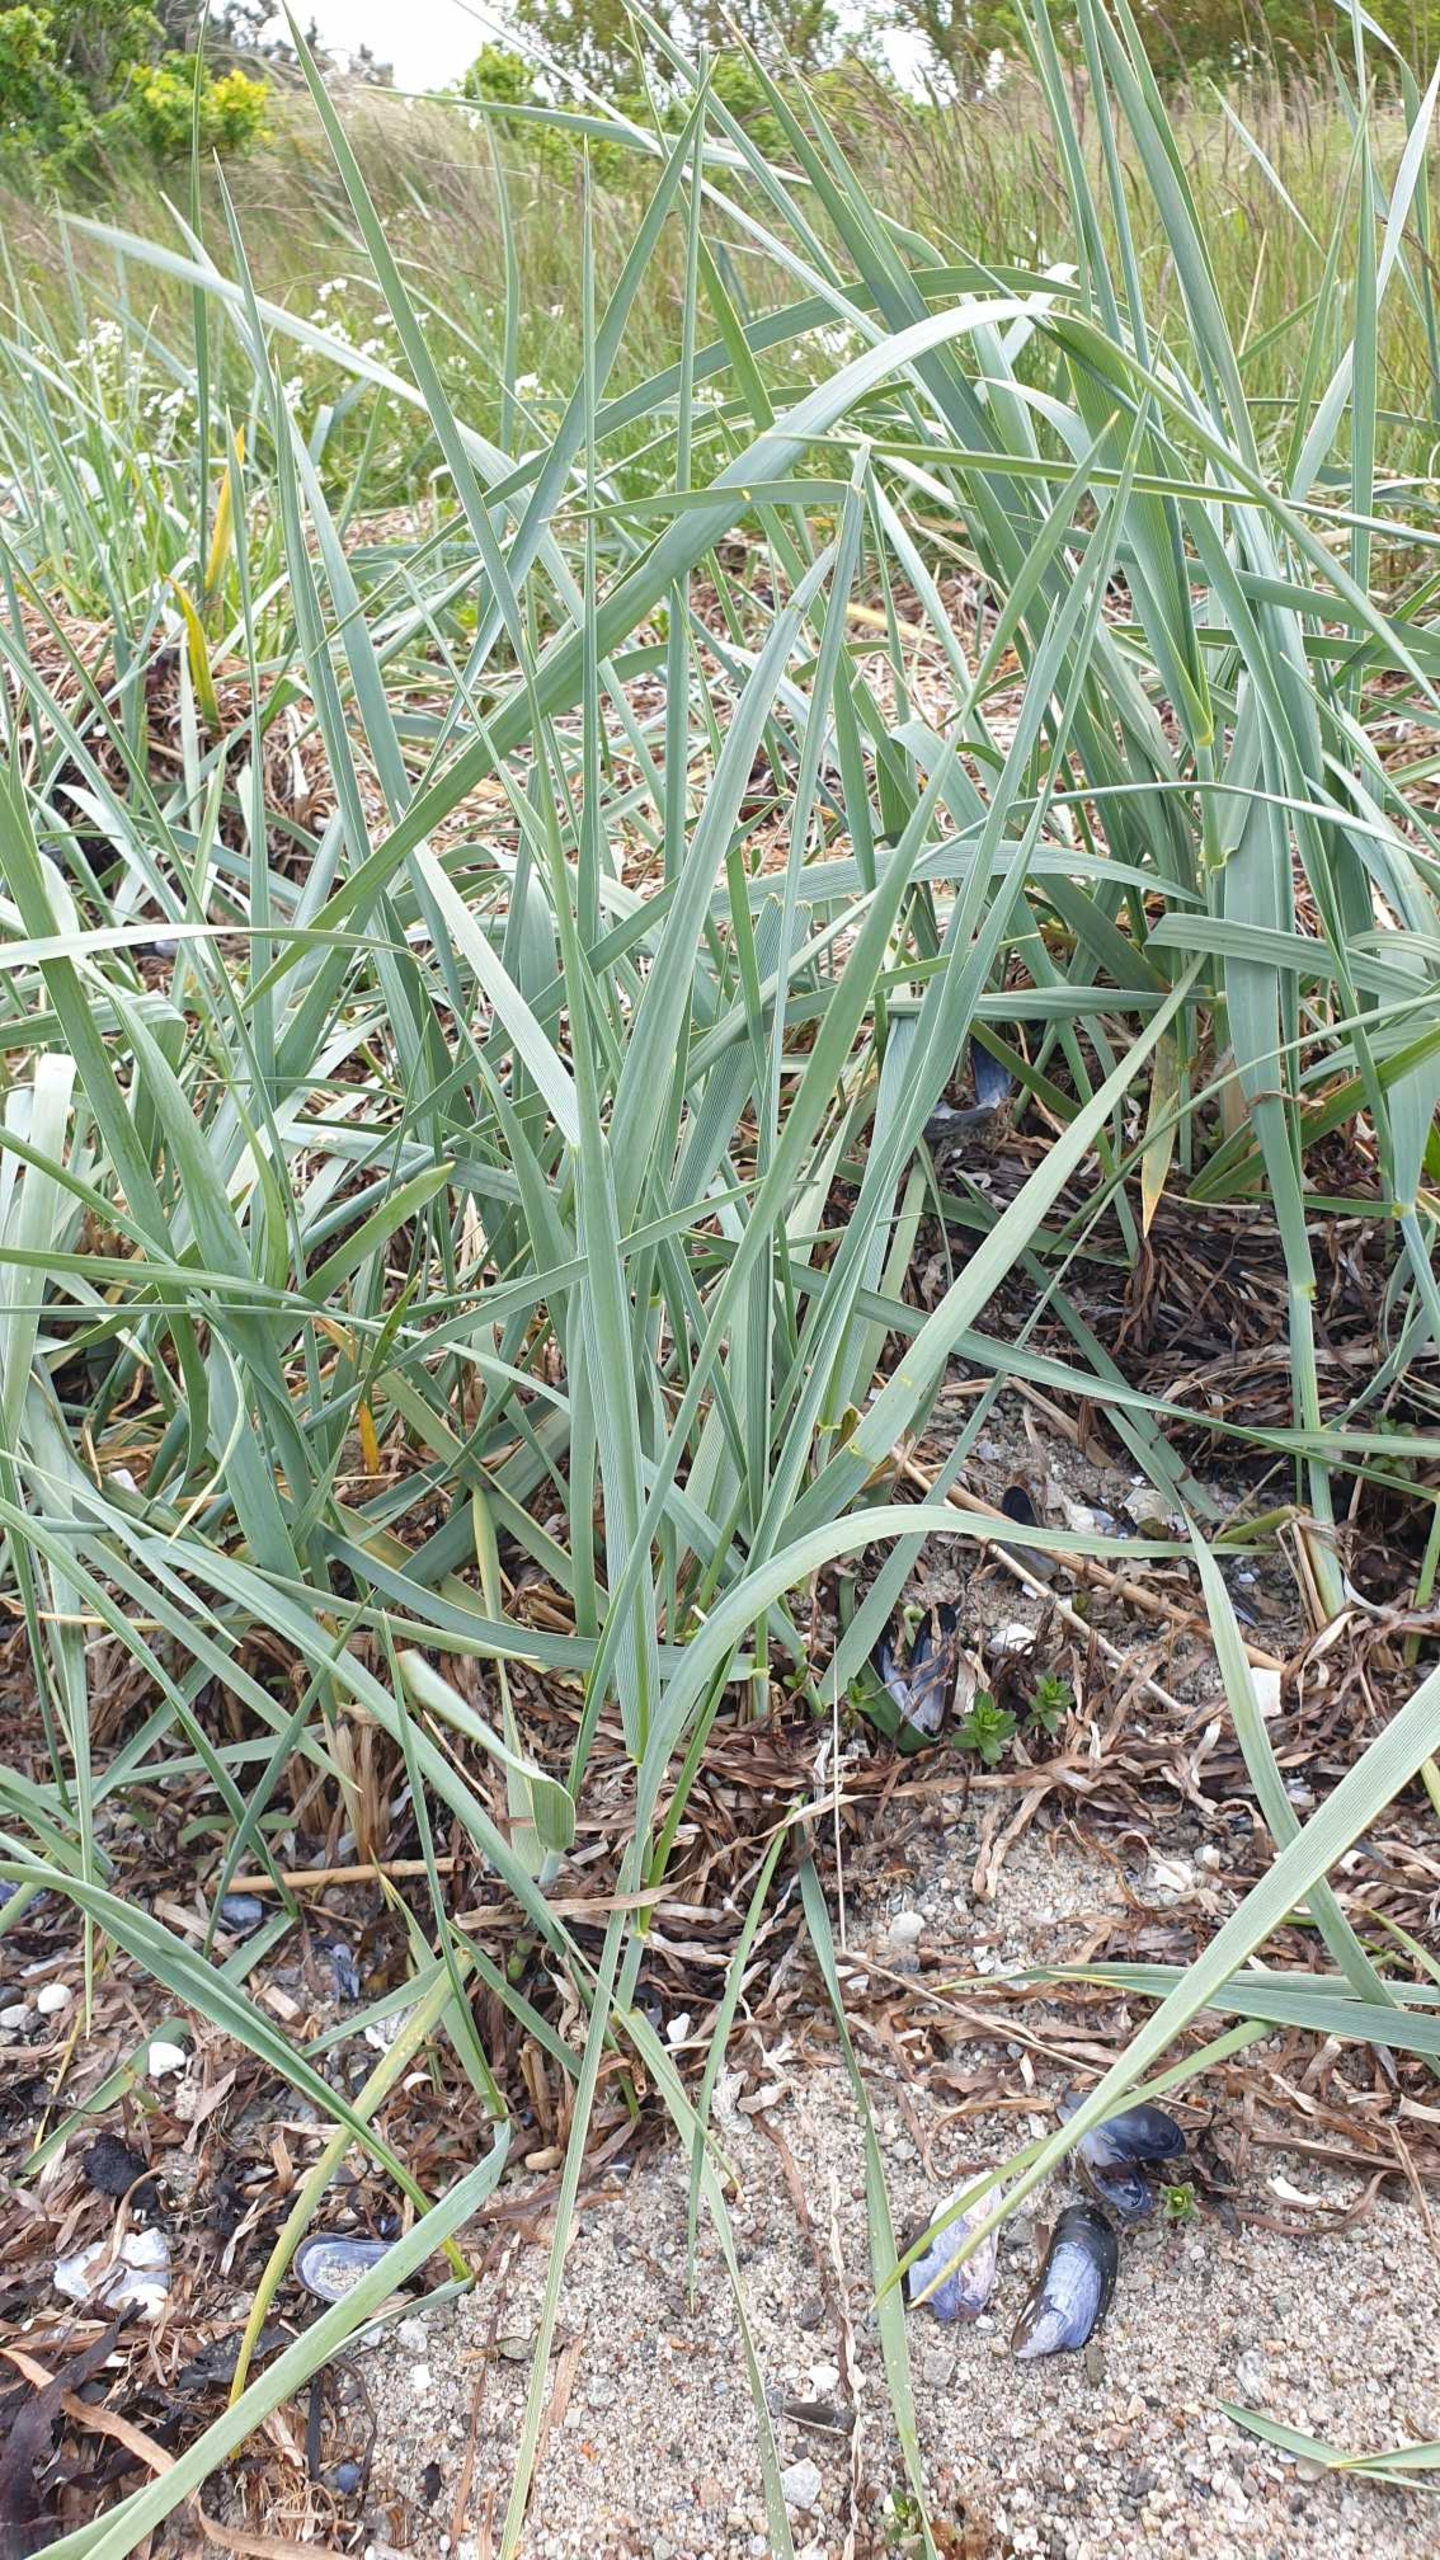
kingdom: Plantae
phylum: Tracheophyta
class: Liliopsida
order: Poales
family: Poaceae
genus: Leymus
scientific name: Leymus arenarius
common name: Marehalm
